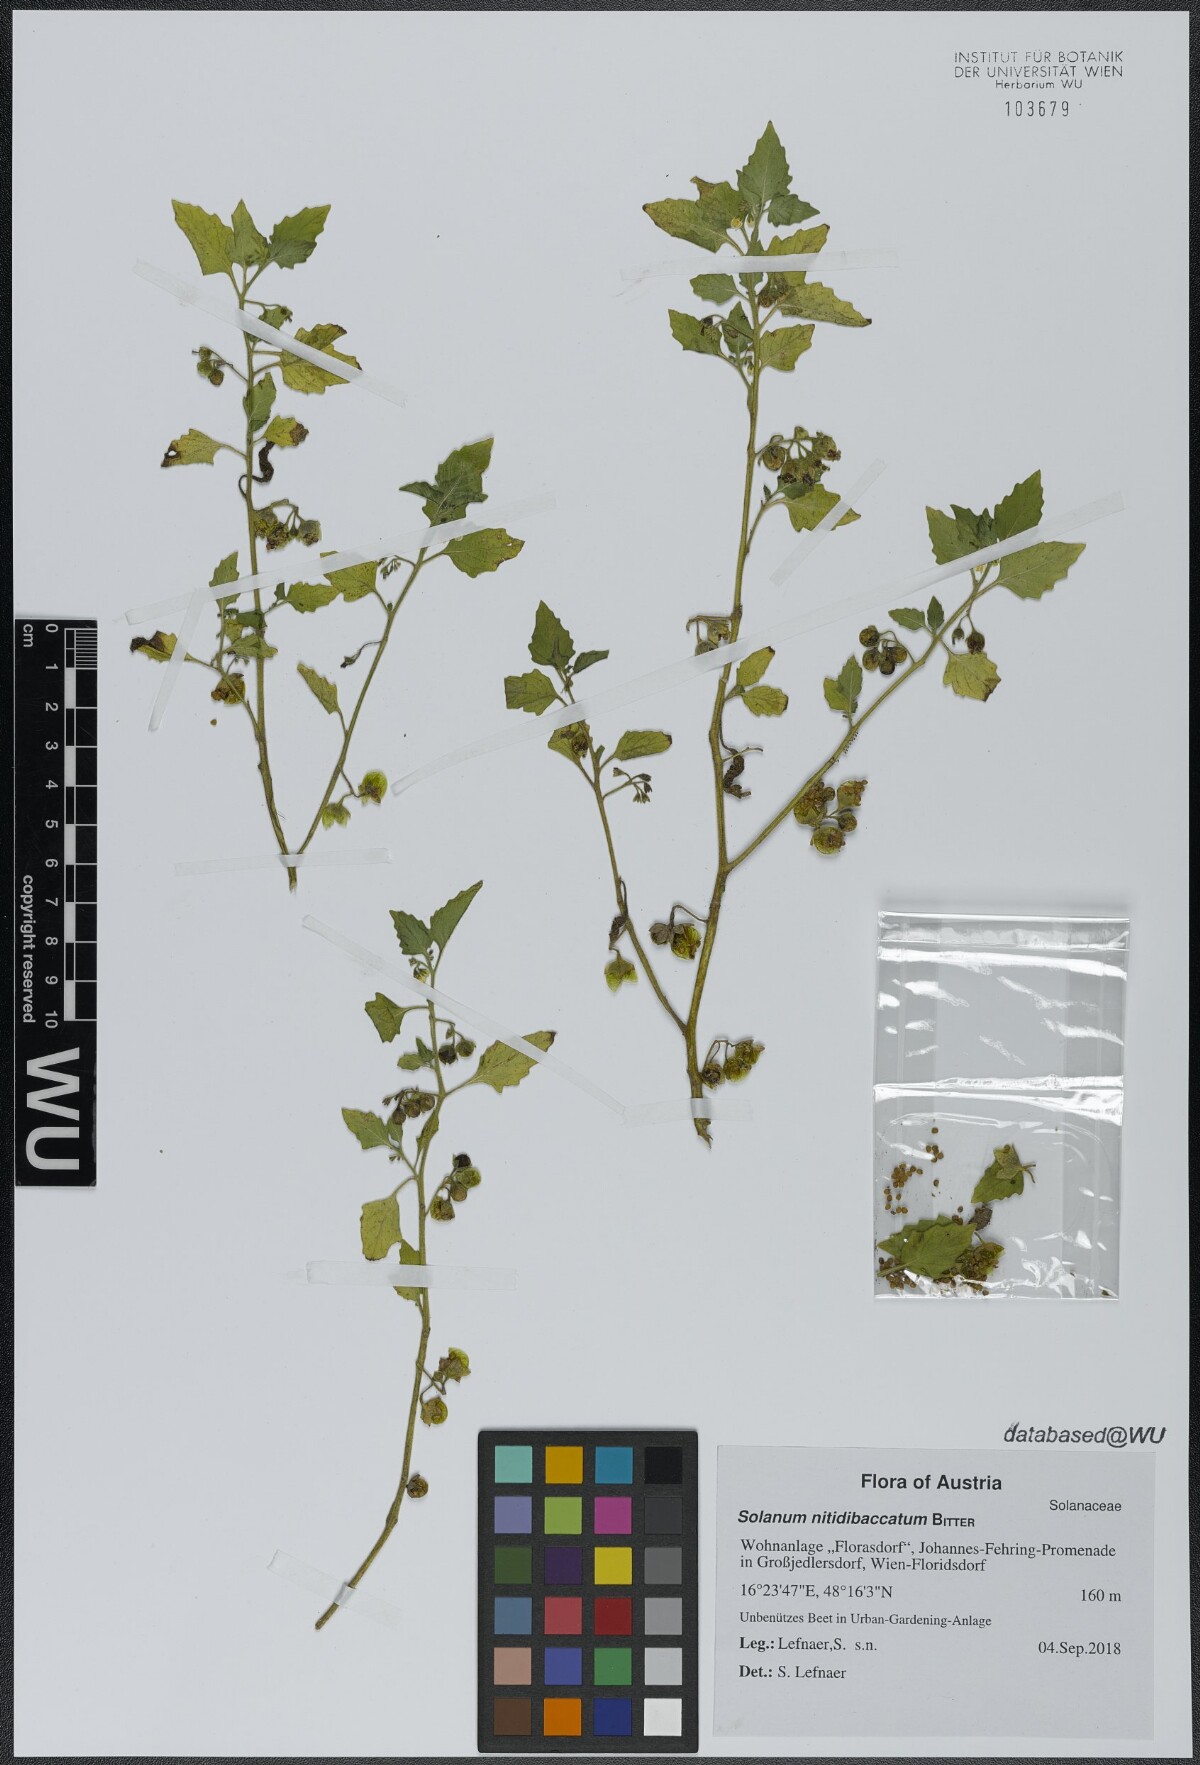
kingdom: Plantae
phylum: Tracheophyta
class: Magnoliopsida
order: Solanales
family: Solanaceae
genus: Solanum
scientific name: Solanum nitidibaccatum
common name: Hairy nightshade
